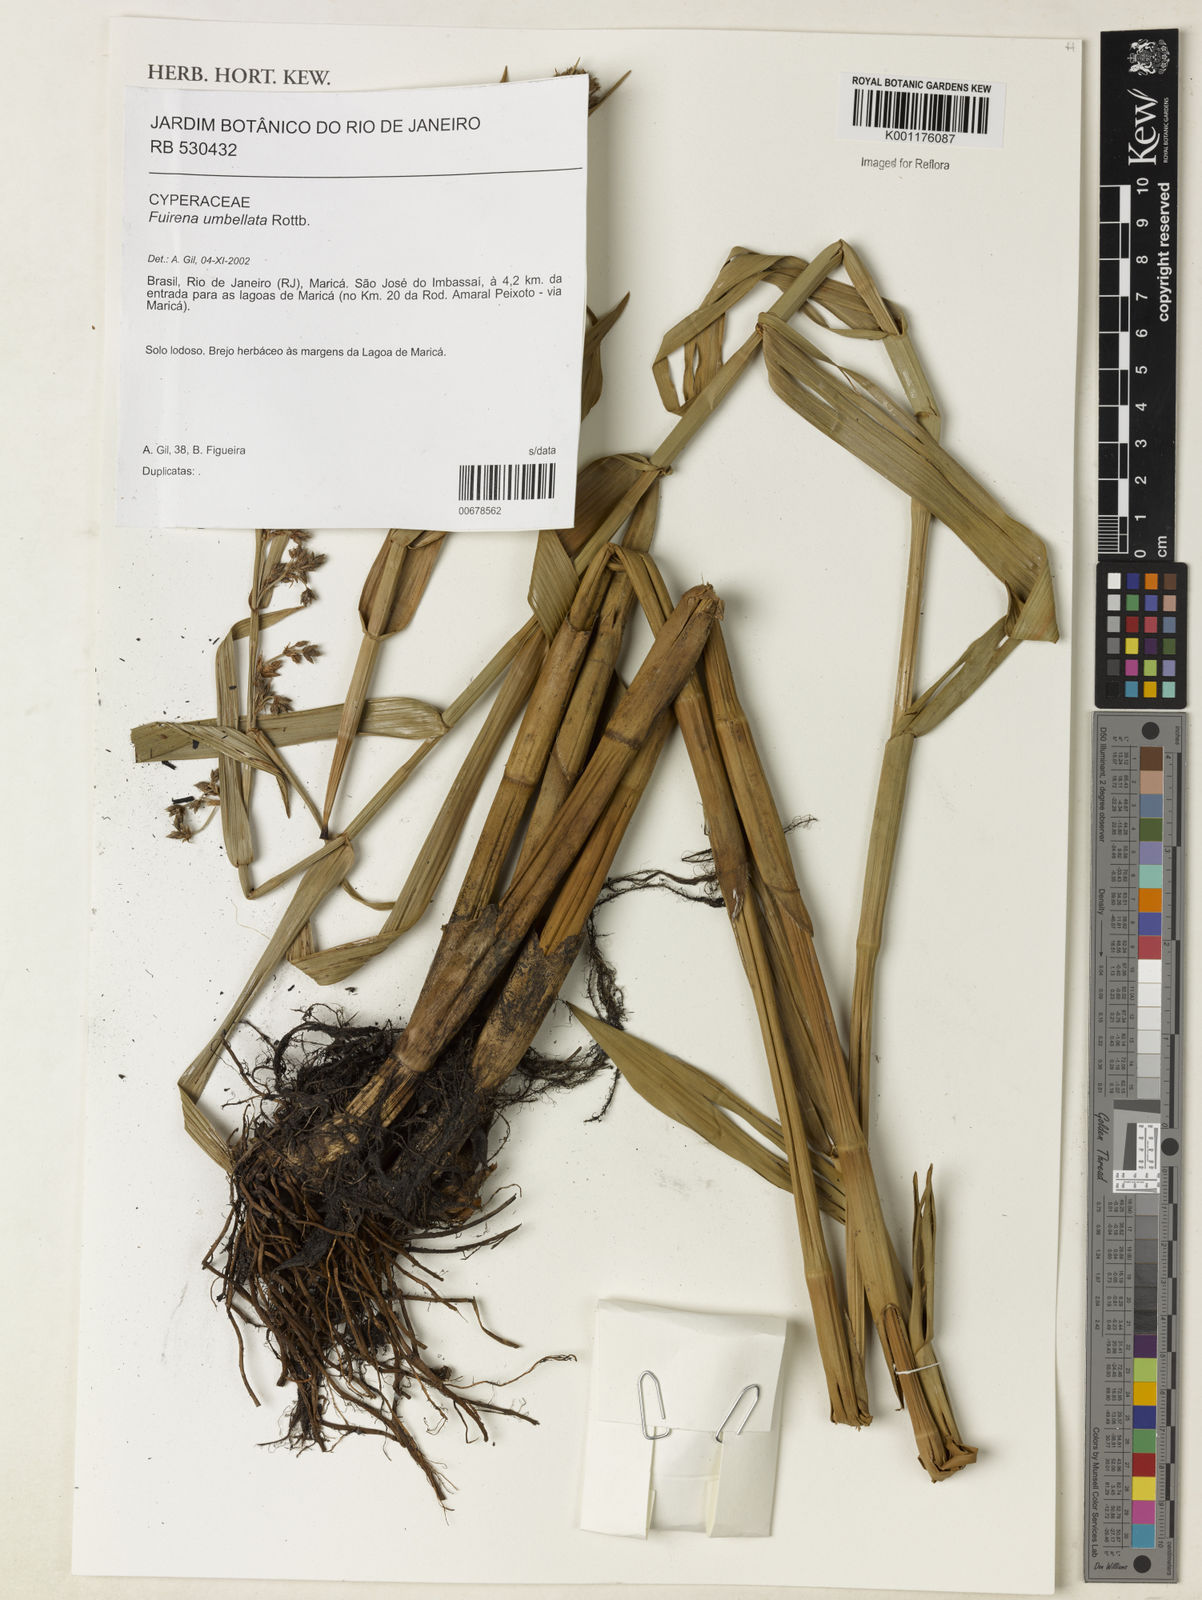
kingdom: Plantae
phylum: Tracheophyta
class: Liliopsida
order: Poales
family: Cyperaceae
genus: Fuirena
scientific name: Fuirena umbellata
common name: Yefen
